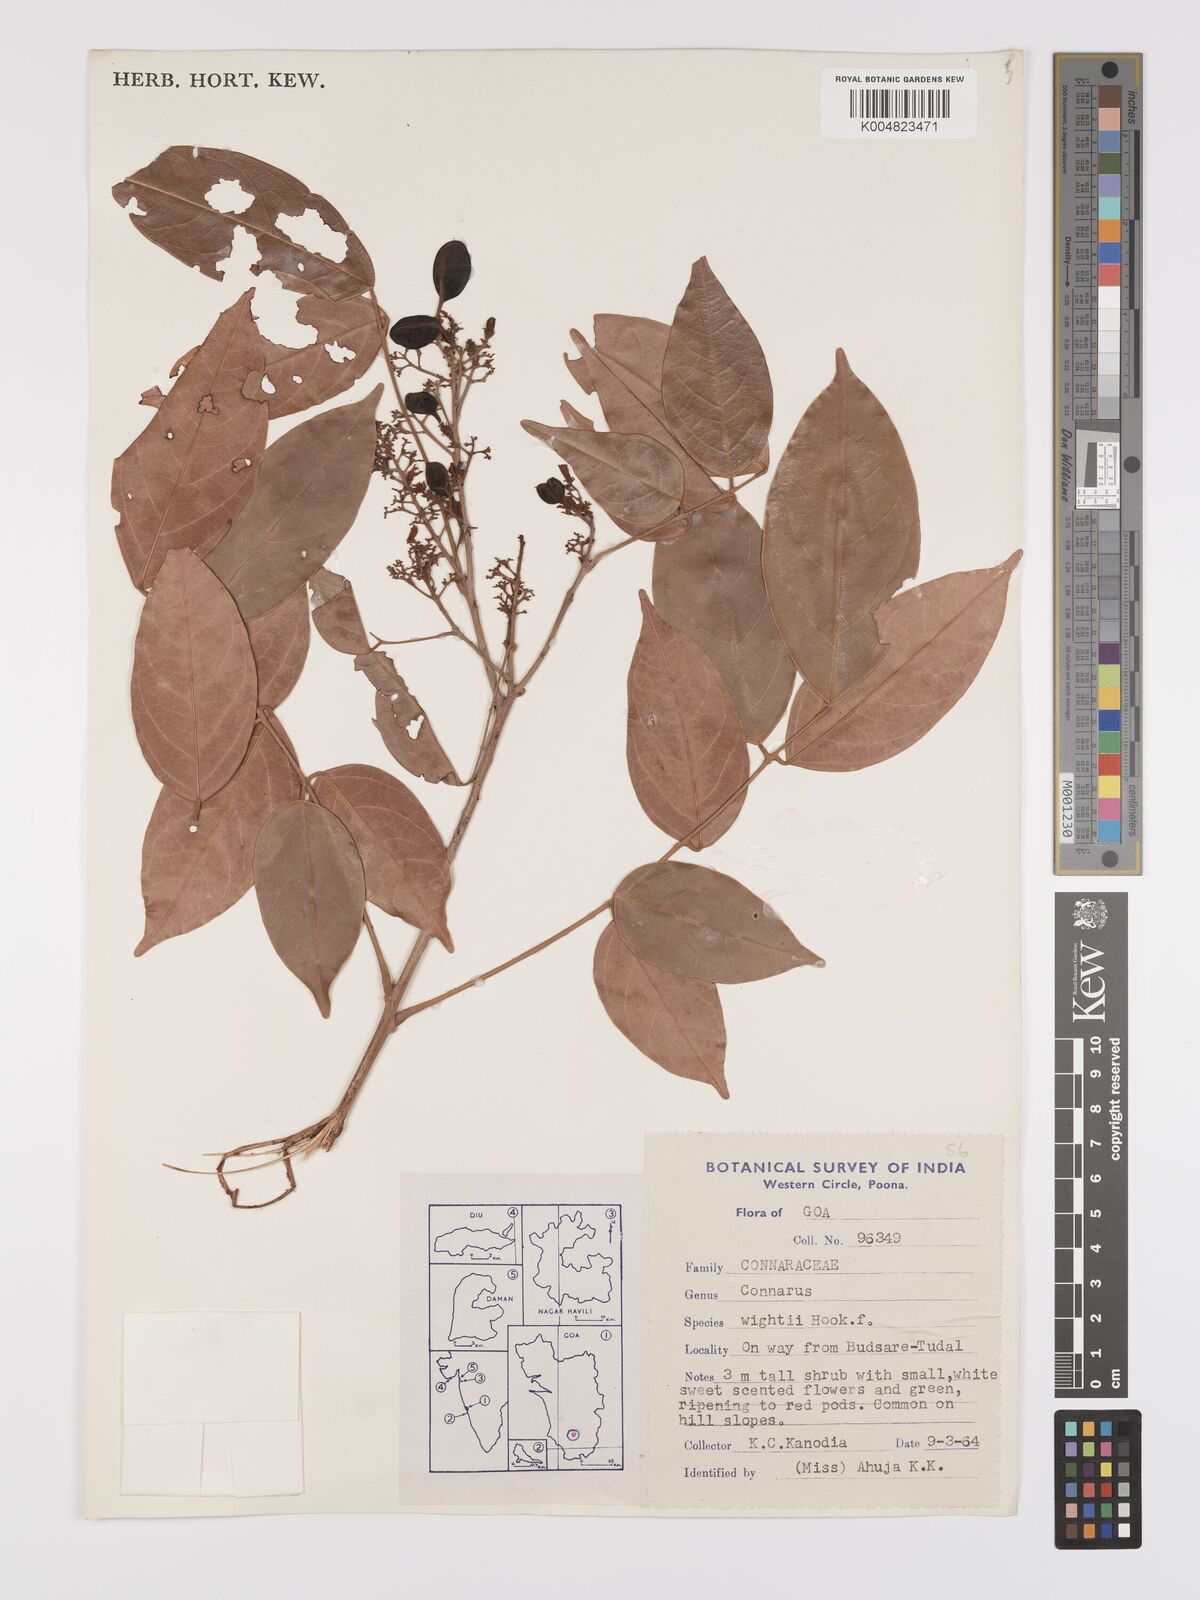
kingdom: Plantae
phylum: Tracheophyta
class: Magnoliopsida
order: Oxalidales
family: Connaraceae
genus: Connarus
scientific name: Connarus wightii
